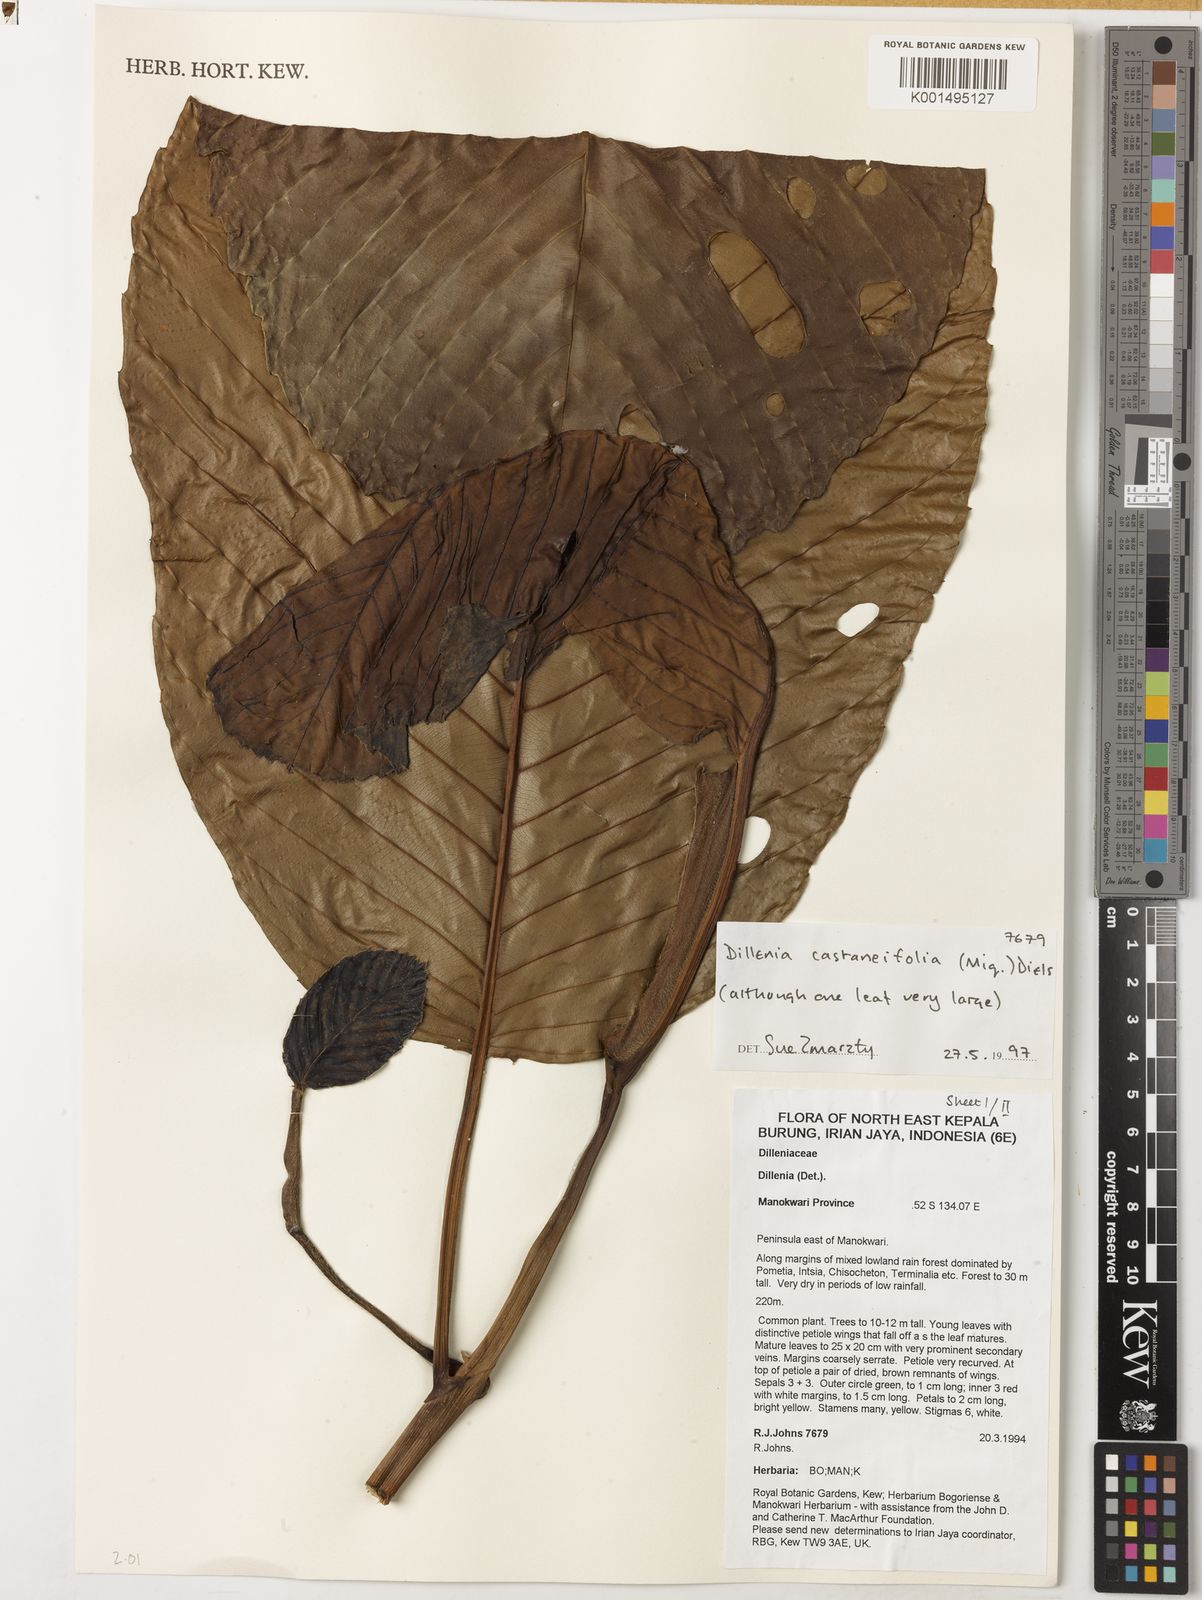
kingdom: Plantae
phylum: Tracheophyta
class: Magnoliopsida
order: Dilleniales
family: Dilleniaceae
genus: Dillenia
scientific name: Dillenia castaneifolia
